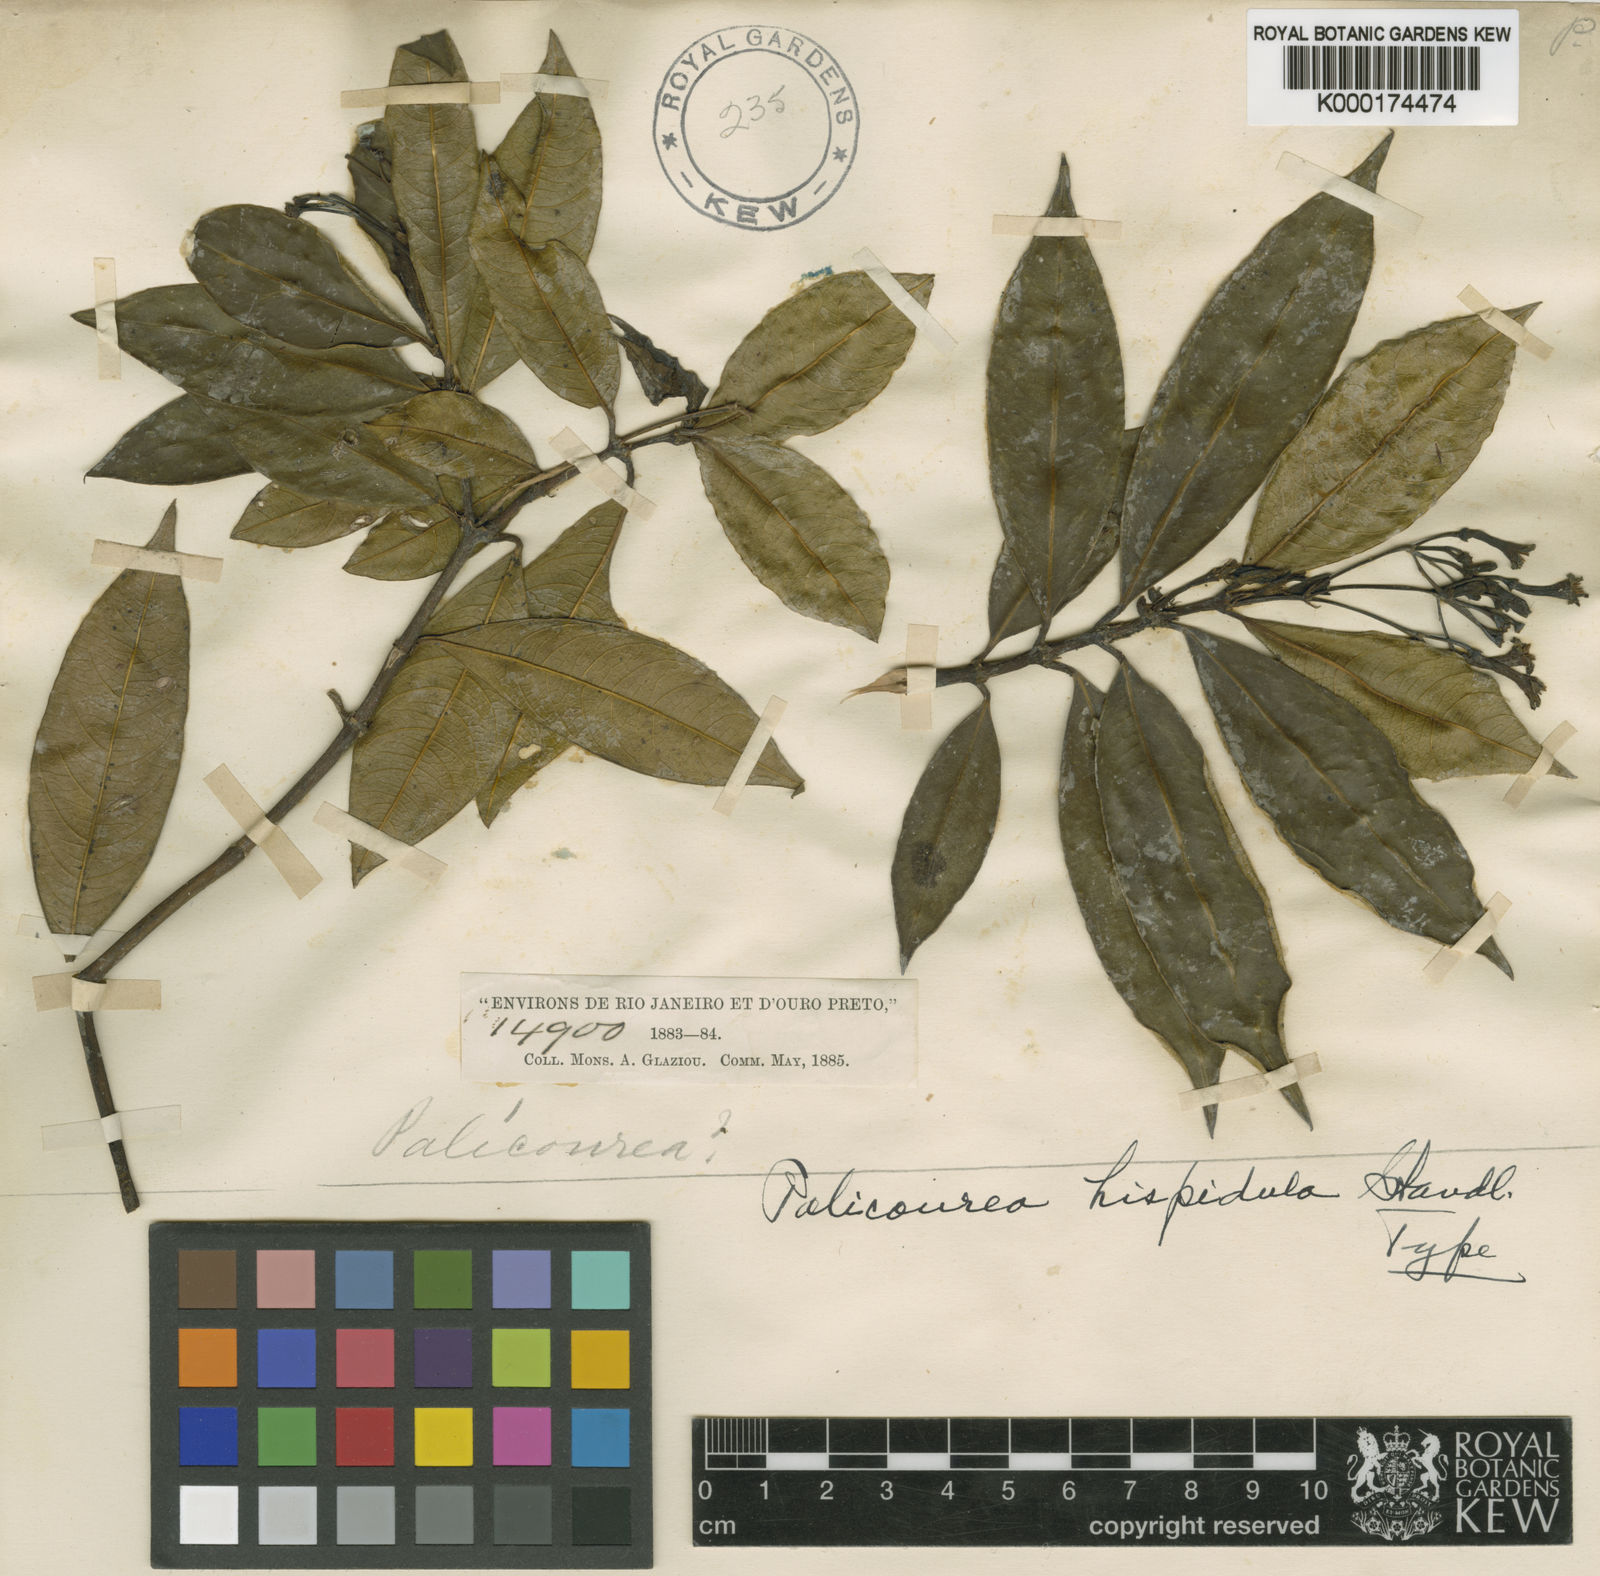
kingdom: Plantae
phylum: Tracheophyta
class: Magnoliopsida
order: Gentianales
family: Rubiaceae
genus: Psychotria
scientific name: Psychotria setulifera
